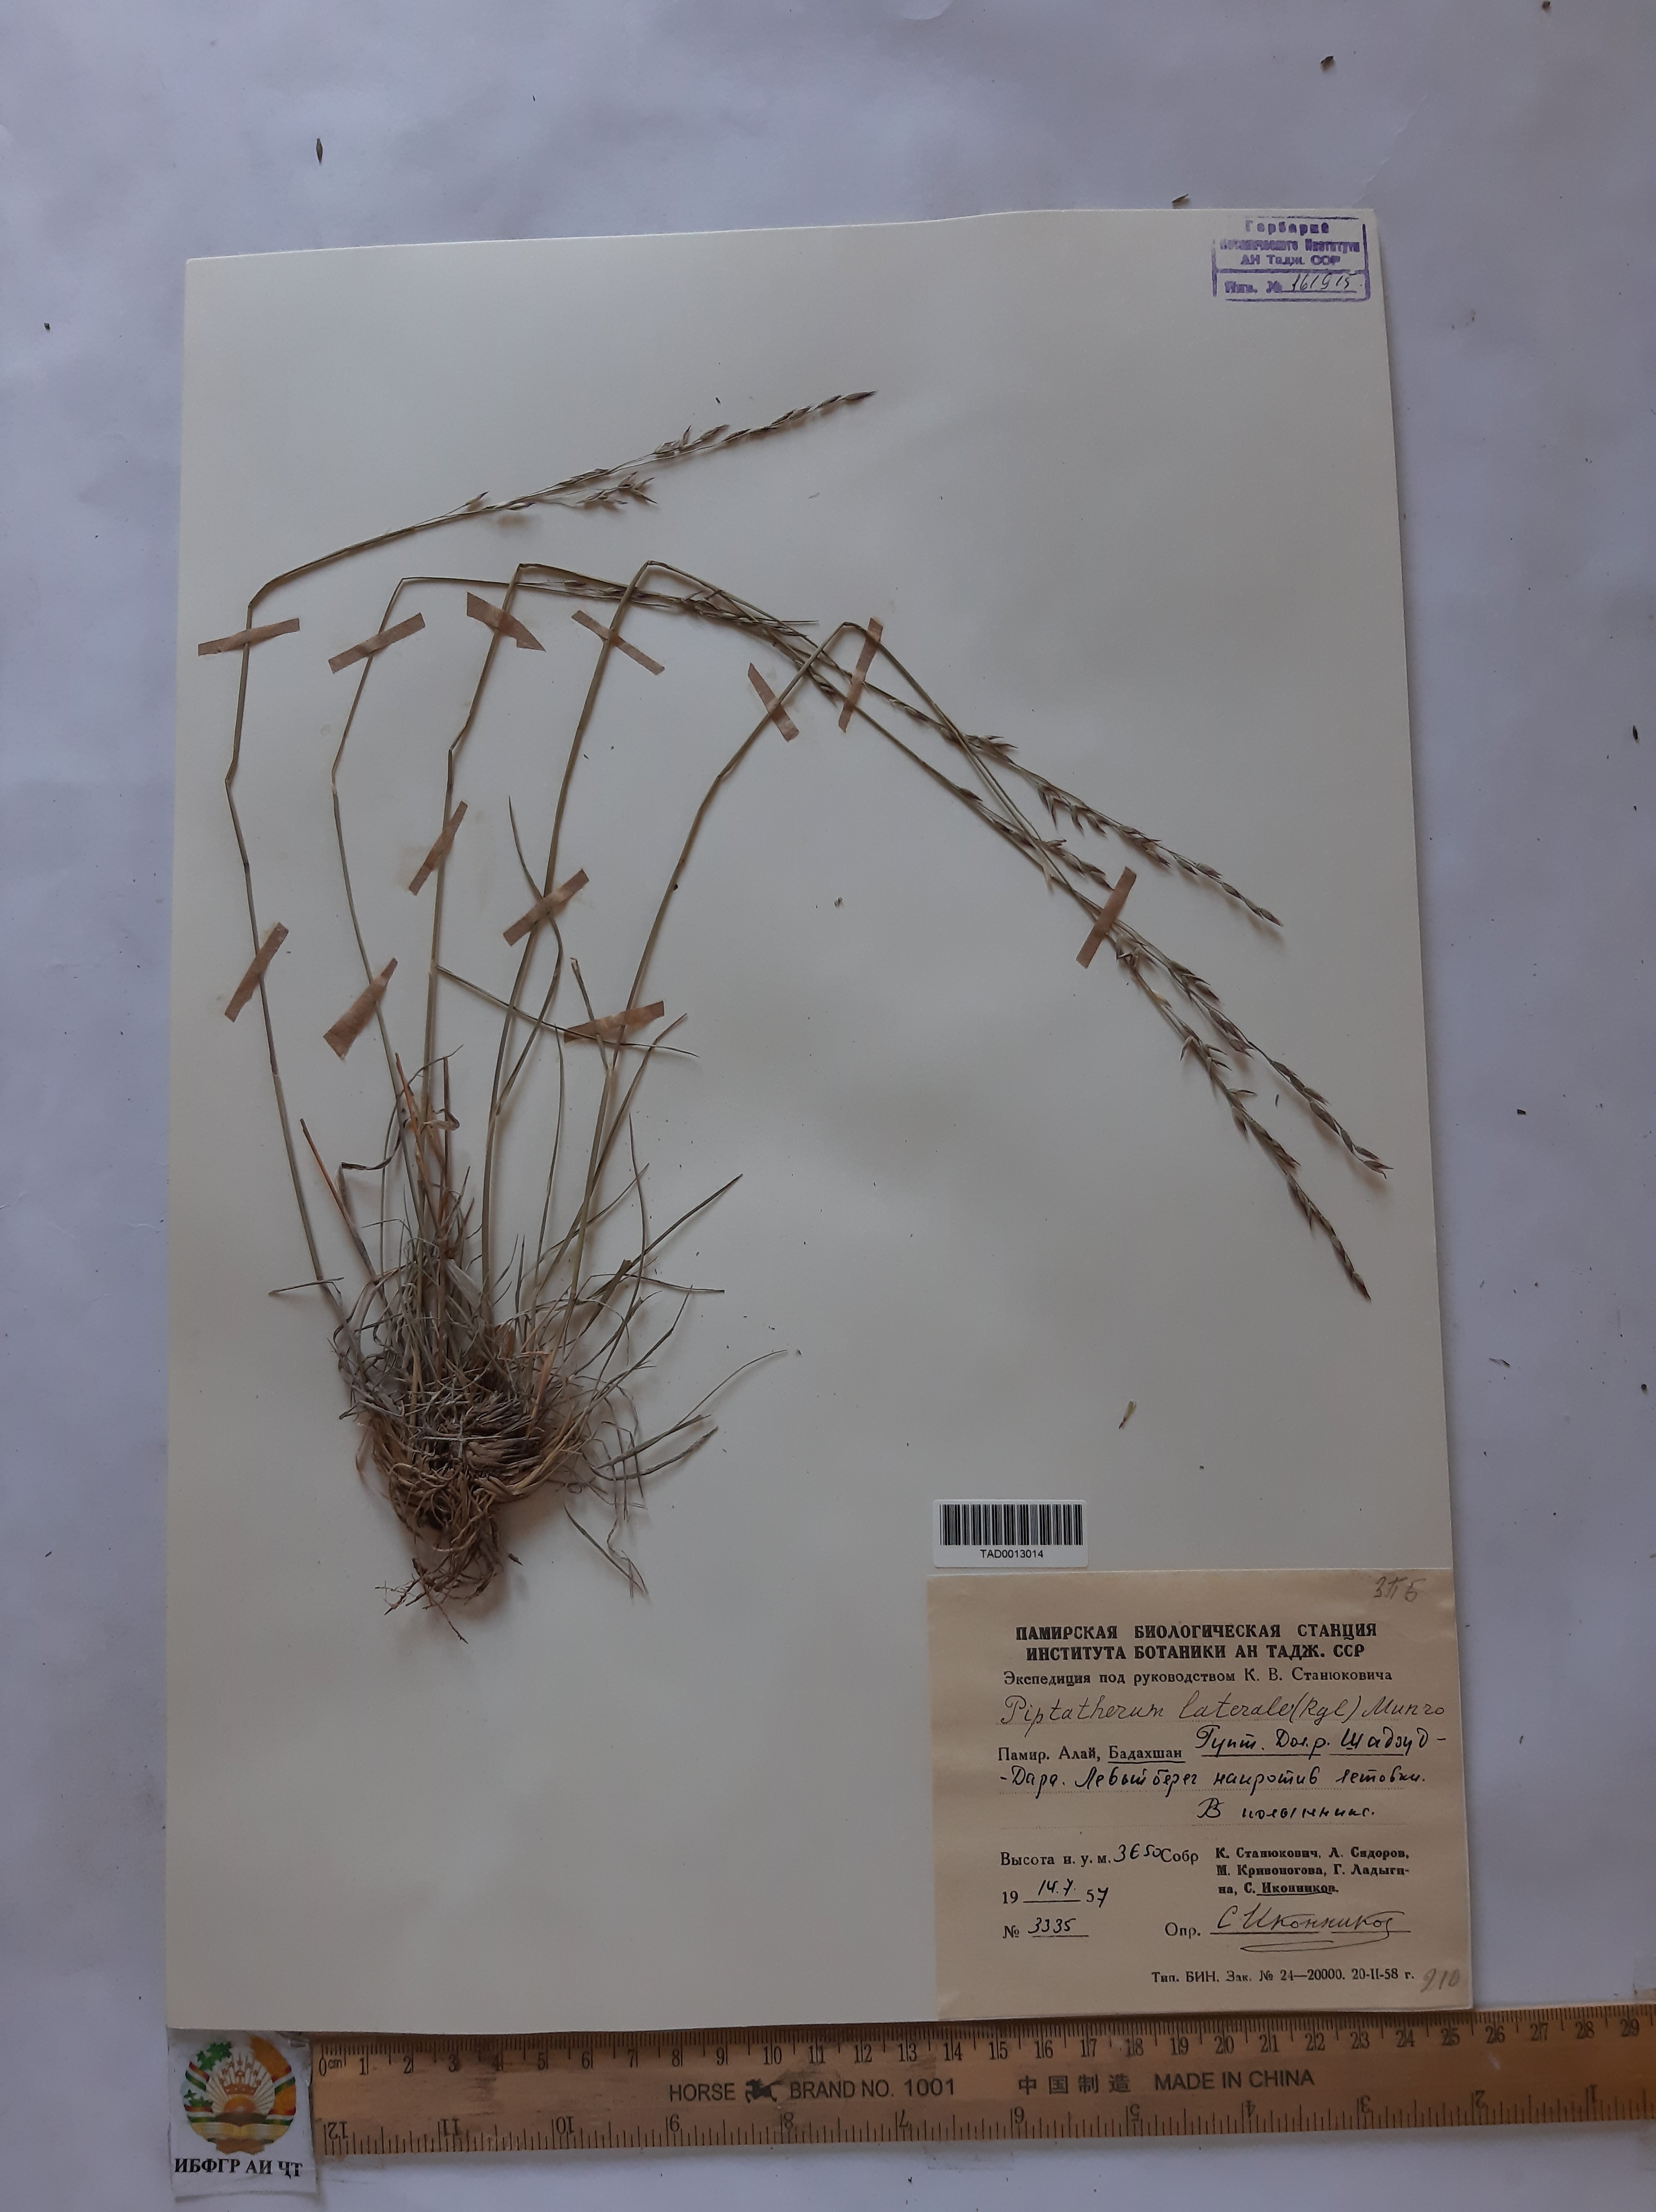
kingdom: Plantae
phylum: Tracheophyta
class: Liliopsida
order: Poales
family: Poaceae
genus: Piptatherum
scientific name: Piptatherum laterale
